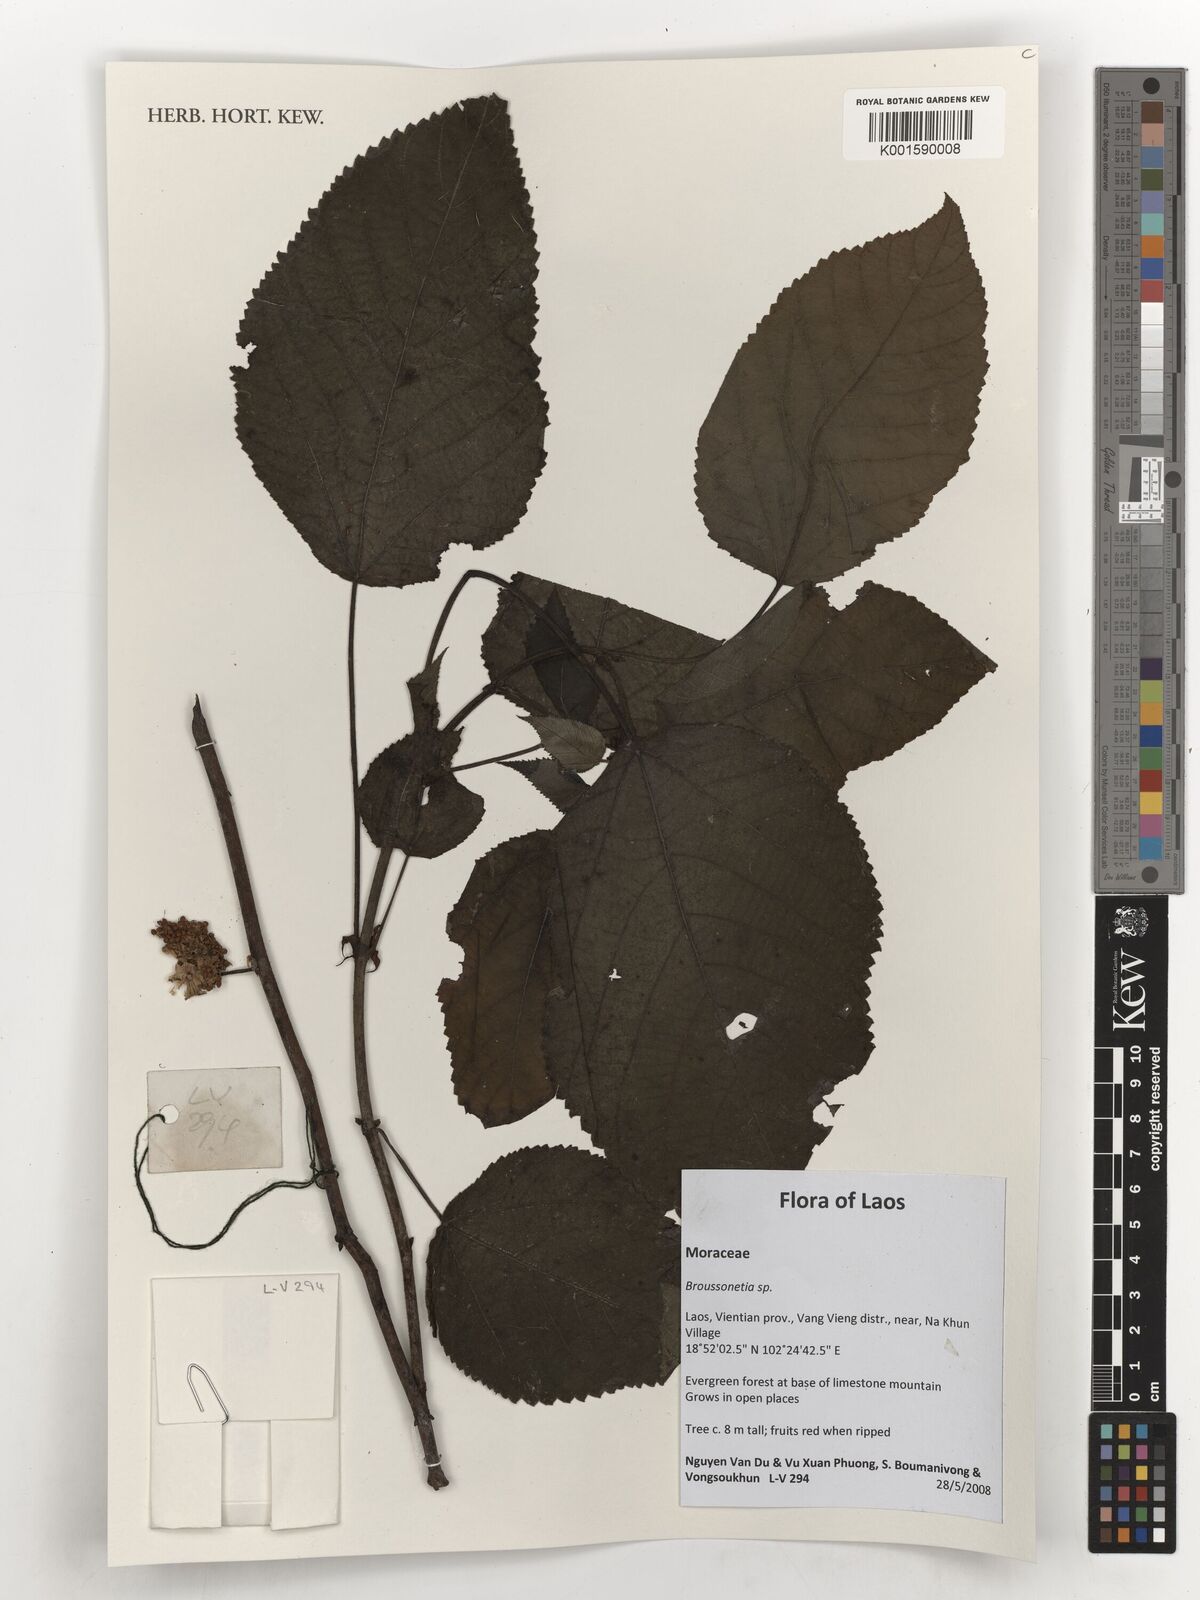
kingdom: Plantae
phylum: Tracheophyta
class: Magnoliopsida
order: Rosales
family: Moraceae
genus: Broussonetia
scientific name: Broussonetia
